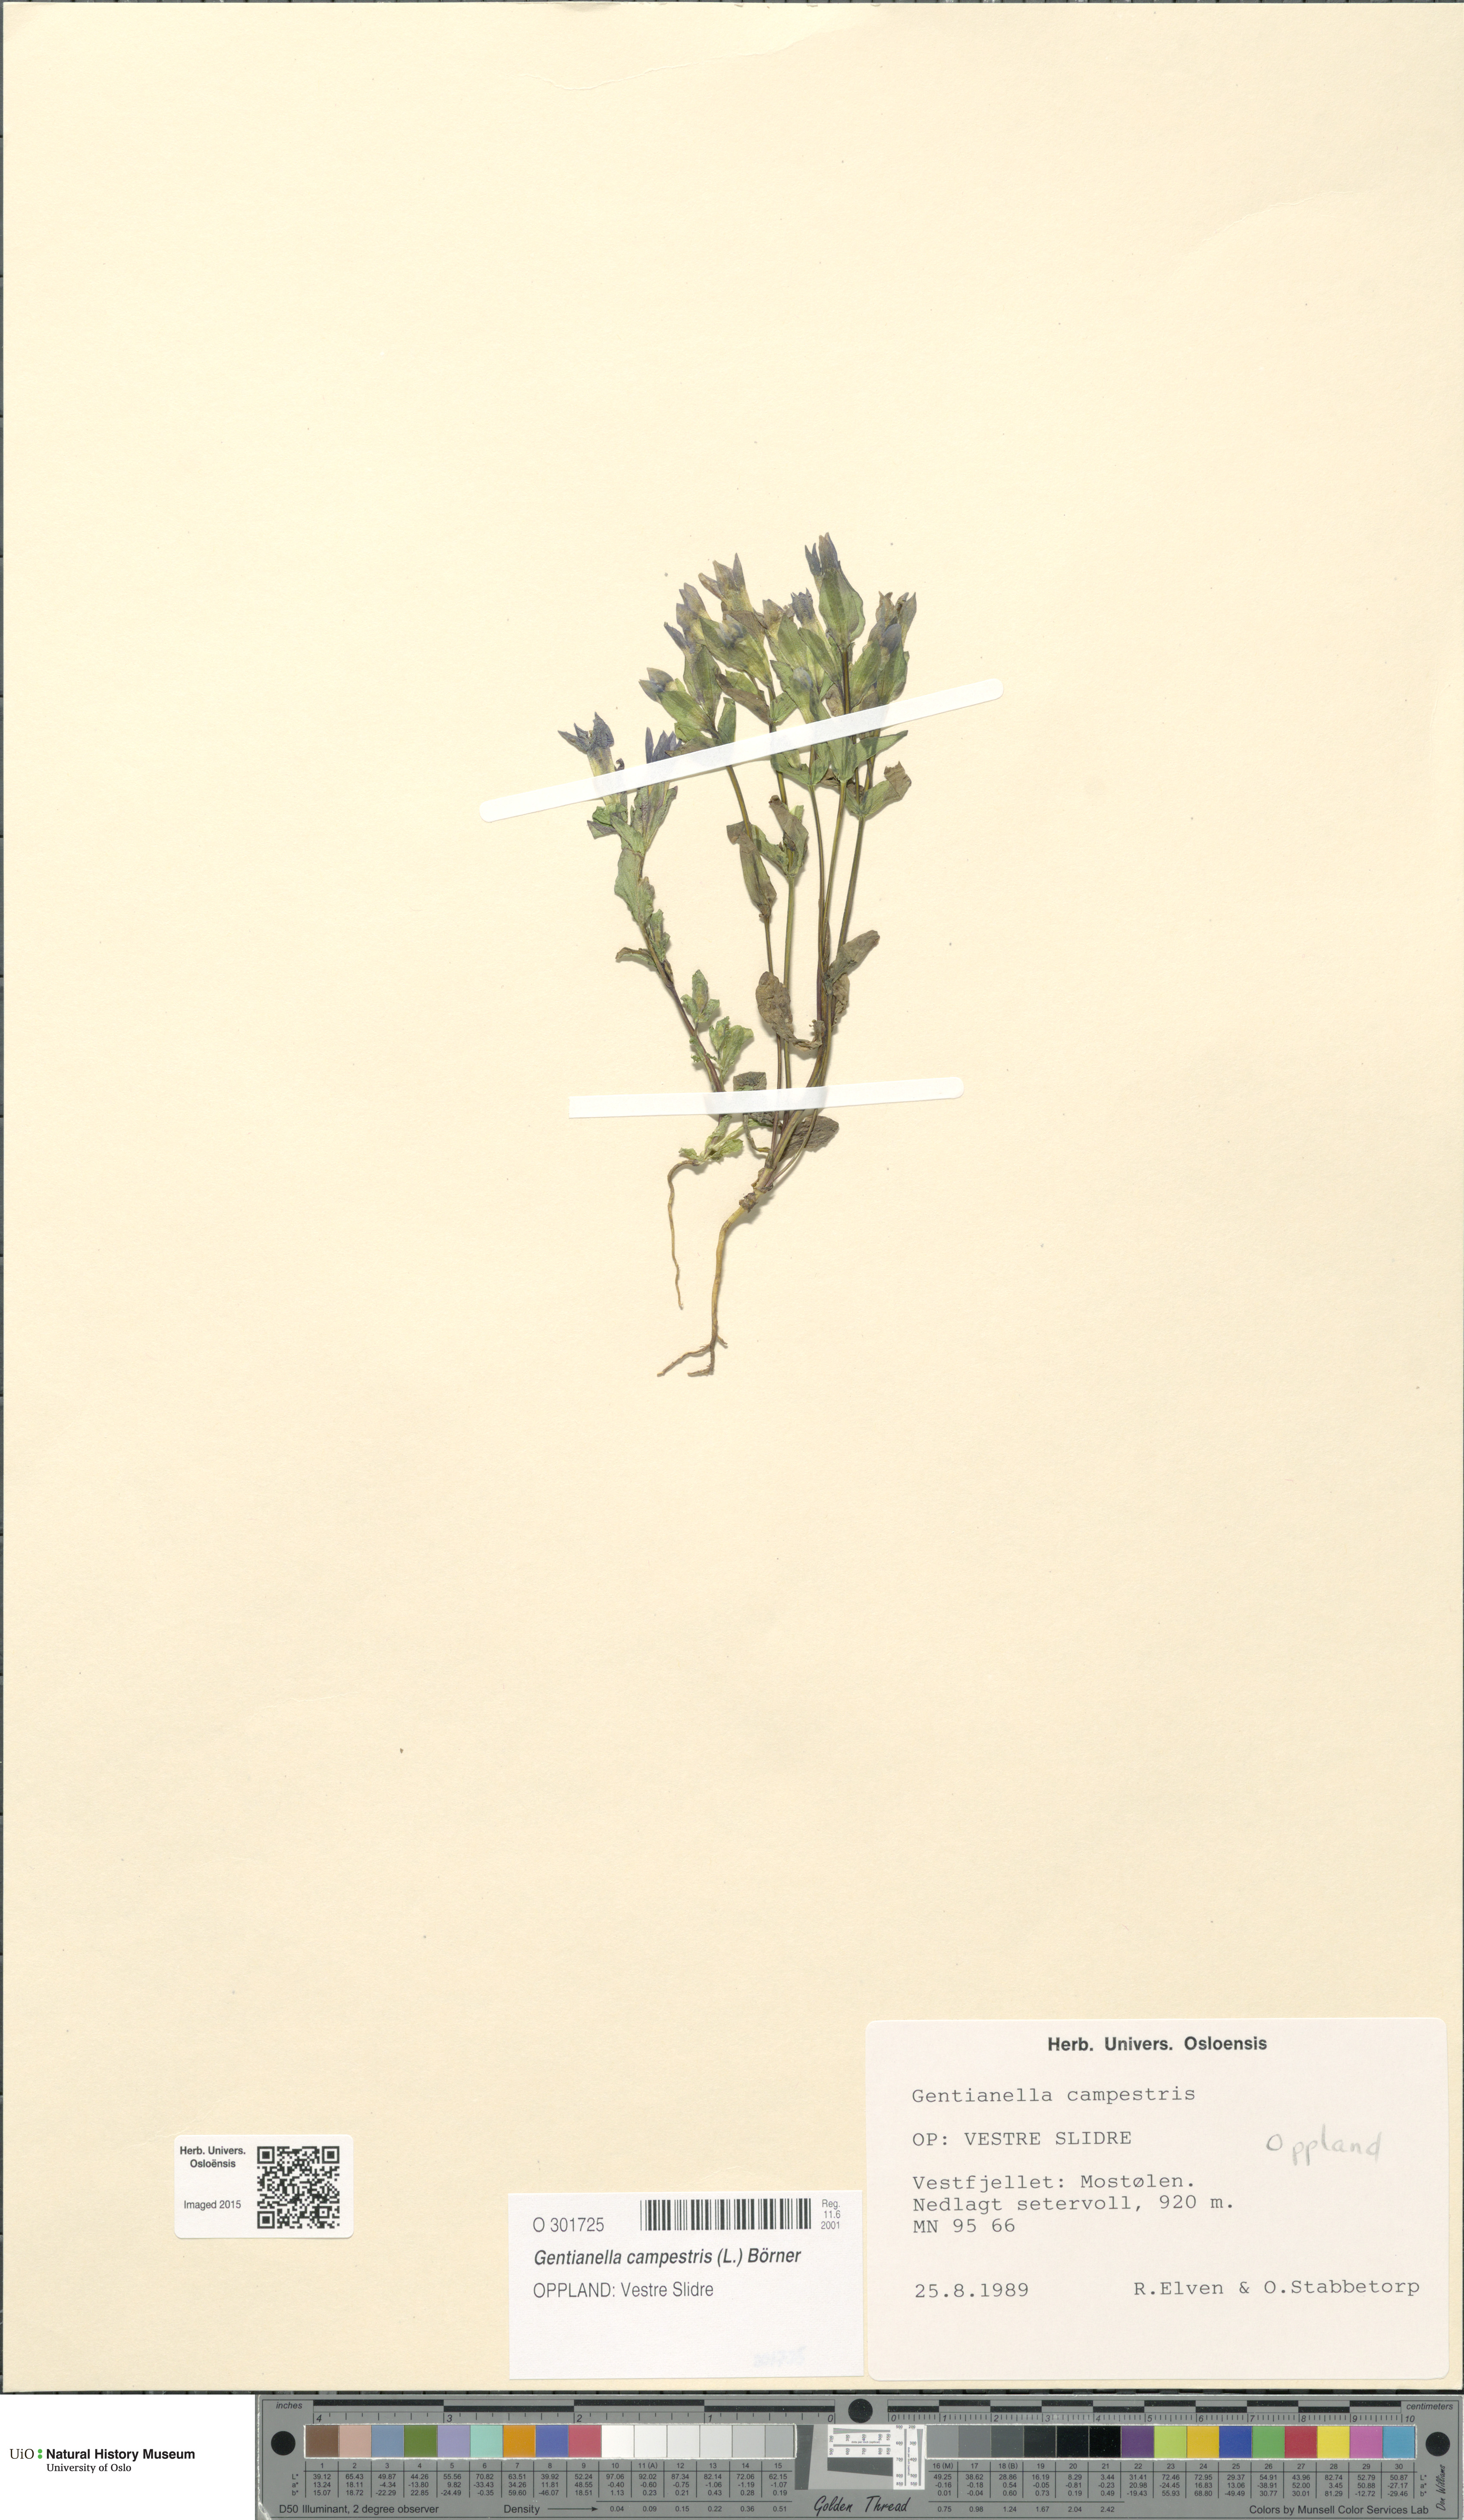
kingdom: Plantae
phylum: Tracheophyta
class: Magnoliopsida
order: Gentianales
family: Gentianaceae
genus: Gentianella
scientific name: Gentianella campestris
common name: Field gentian
